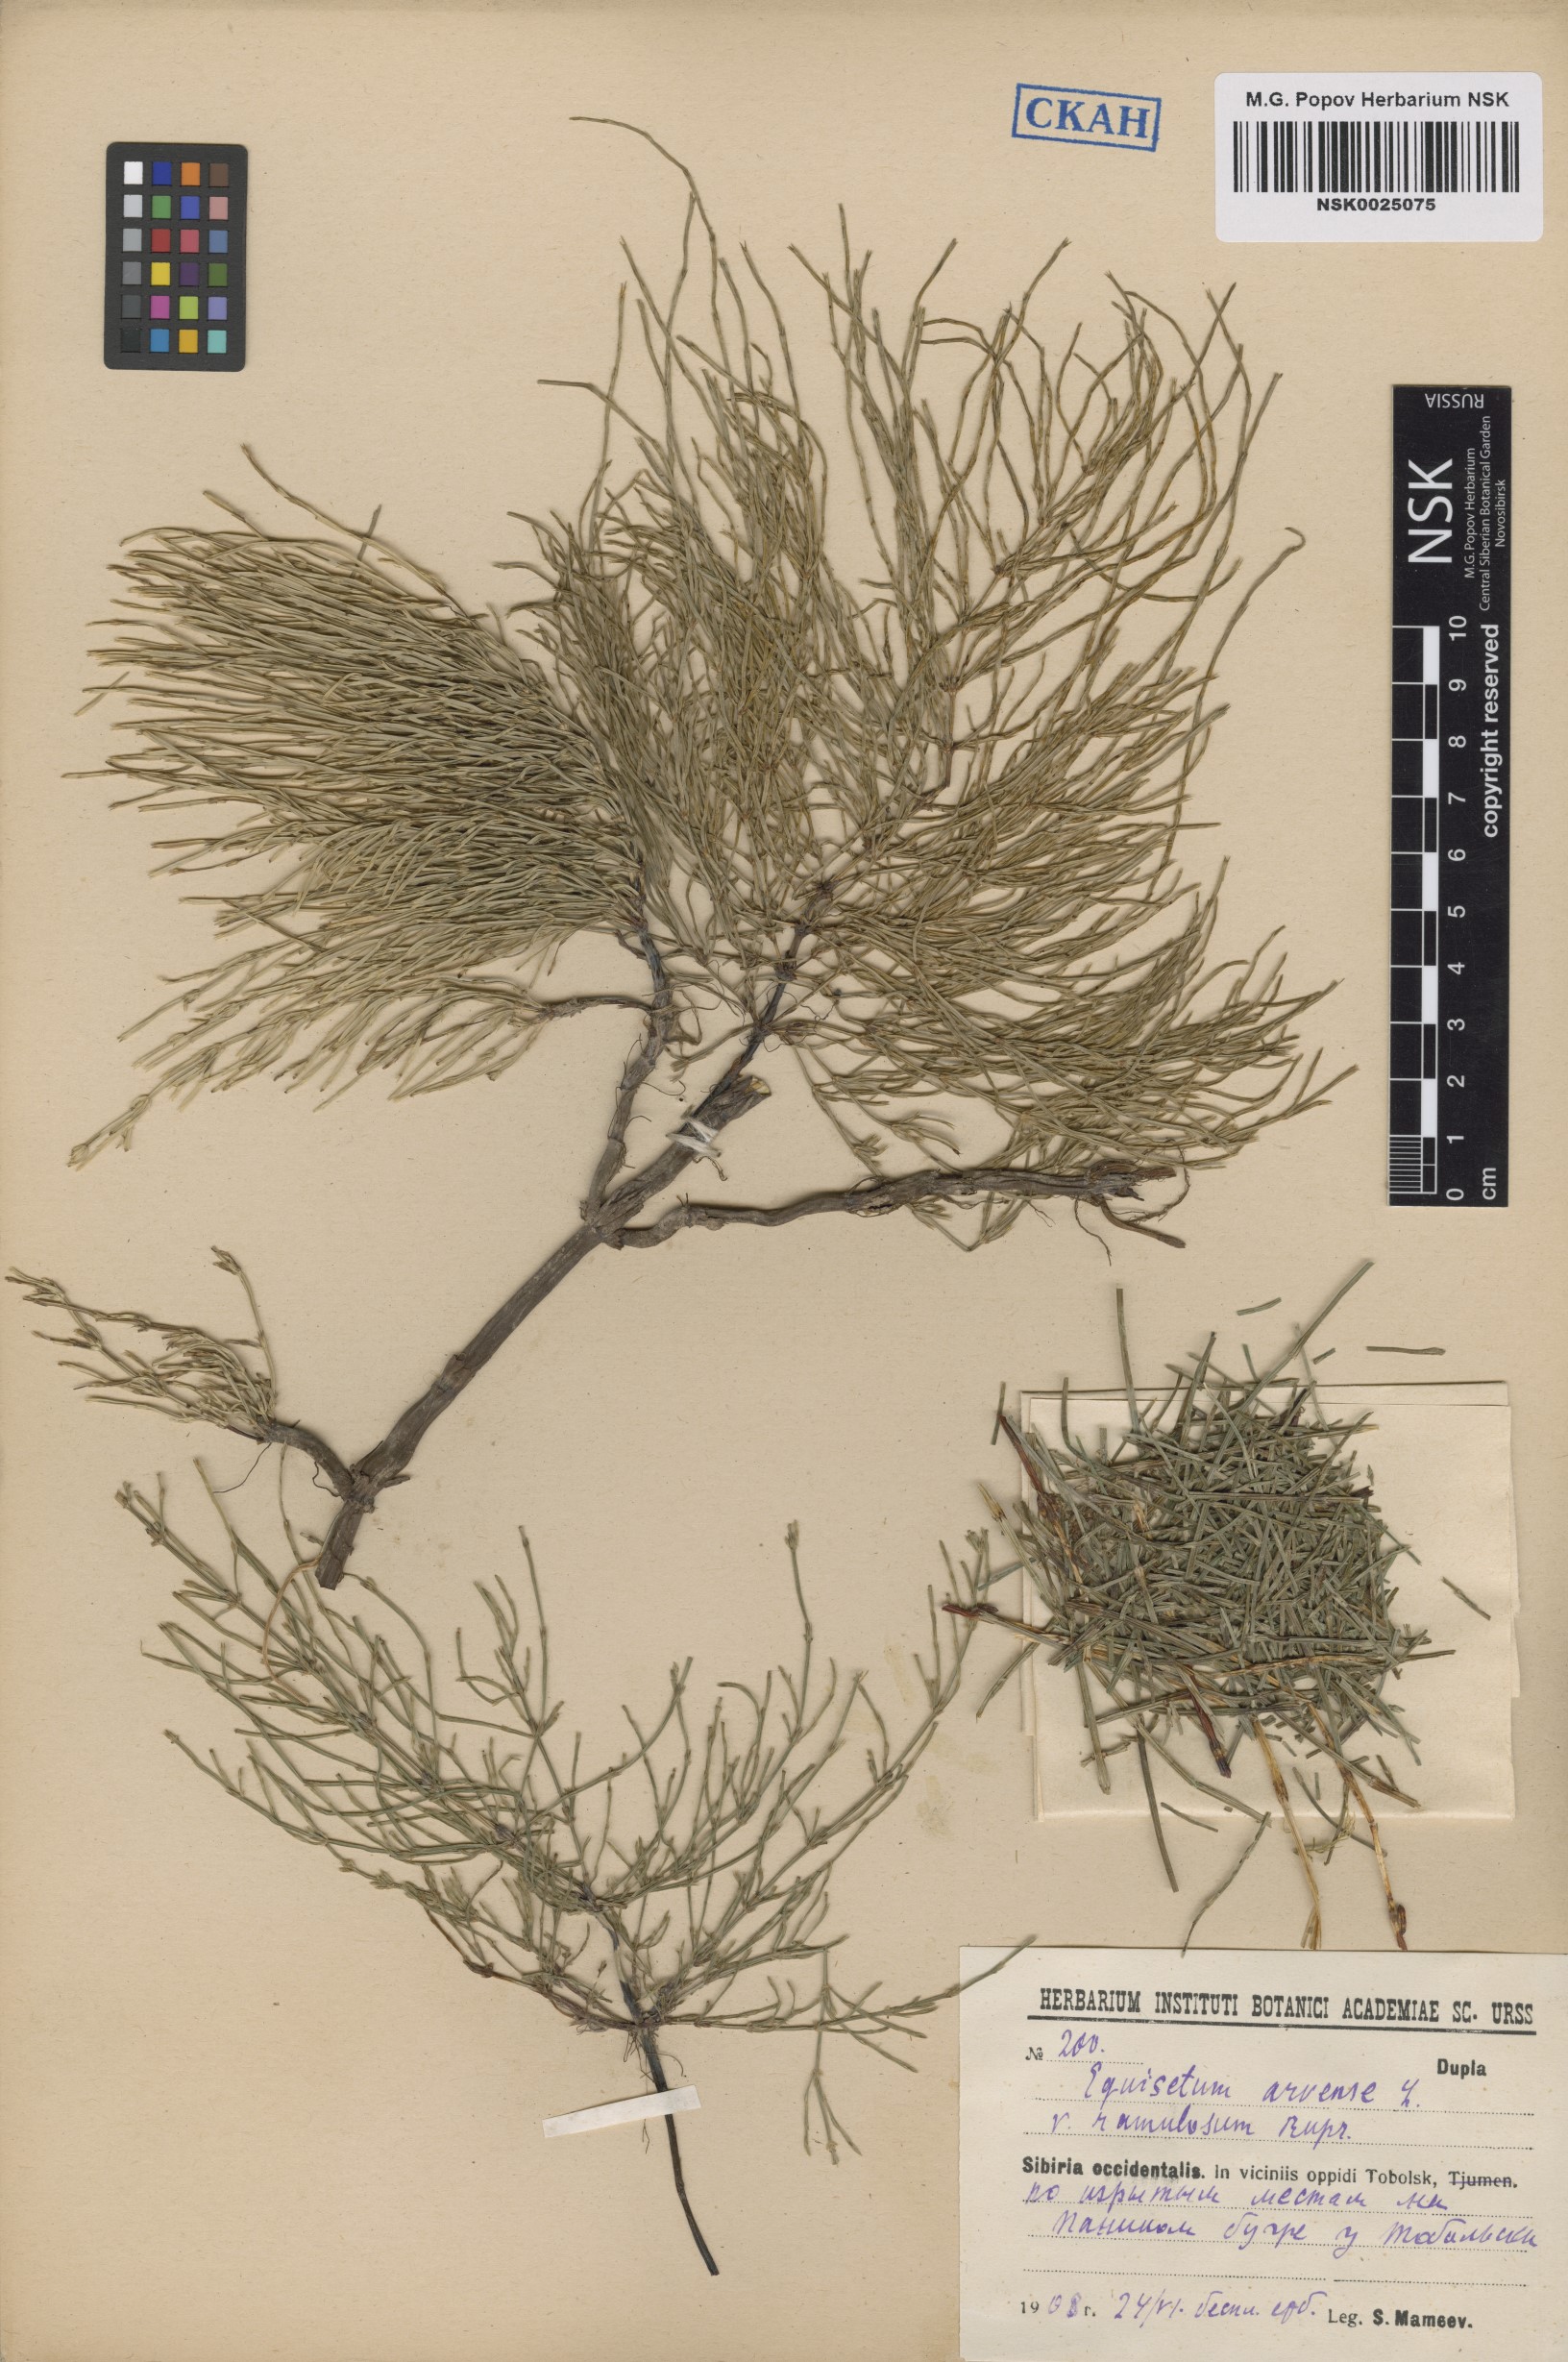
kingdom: Plantae
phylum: Tracheophyta
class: Polypodiopsida
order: Equisetales
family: Equisetaceae
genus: Equisetum
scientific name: Equisetum arvense
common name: Field horsetail
